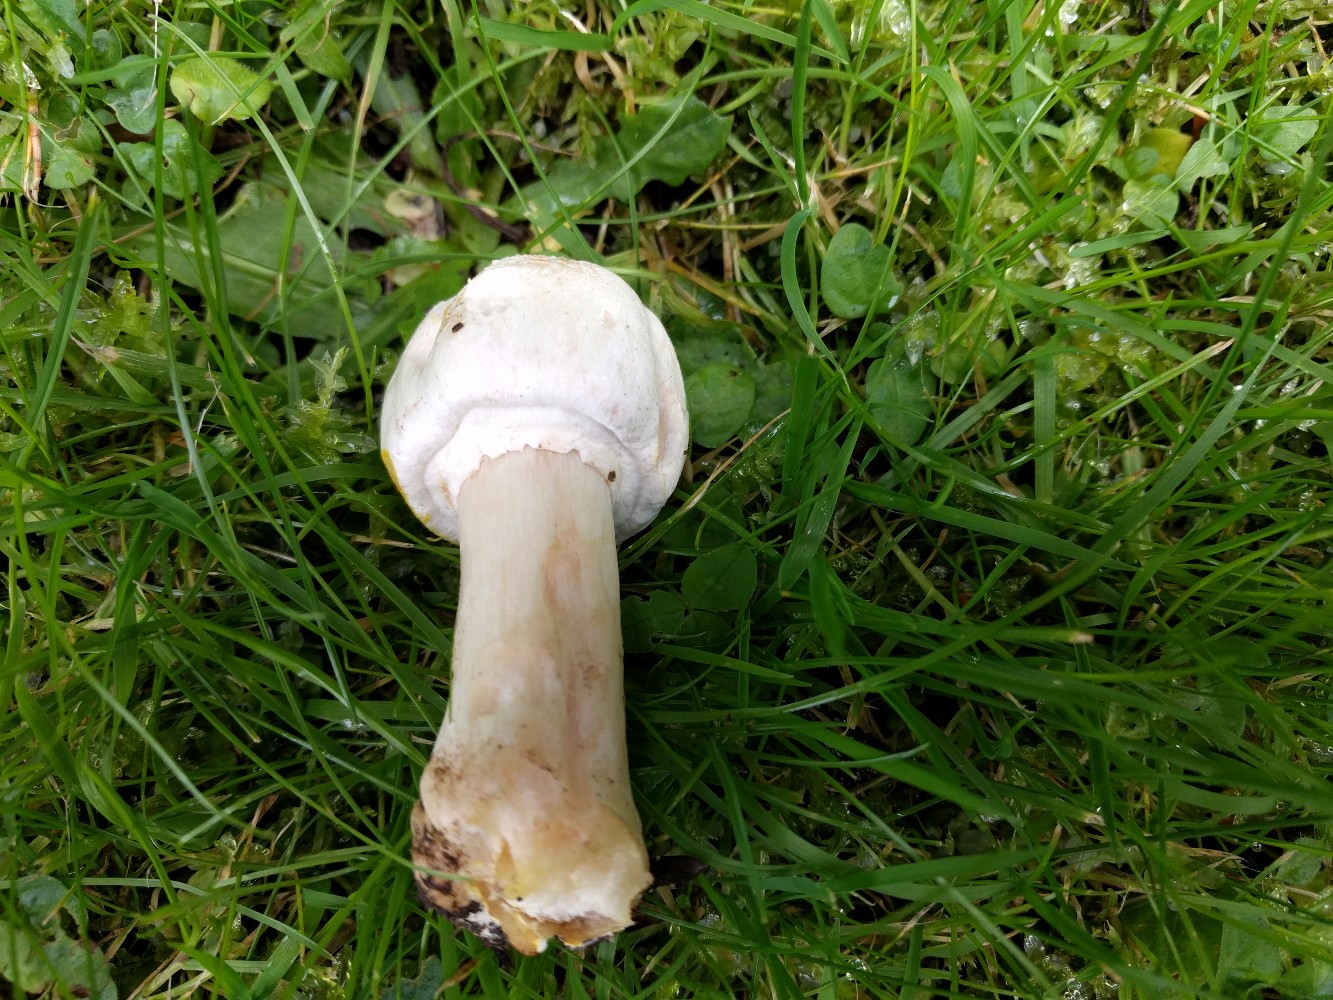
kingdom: Fungi
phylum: Basidiomycota
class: Agaricomycetes
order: Agaricales
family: Agaricaceae
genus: Agaricus
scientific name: Agaricus xanthodermus
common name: karbol-champignon
